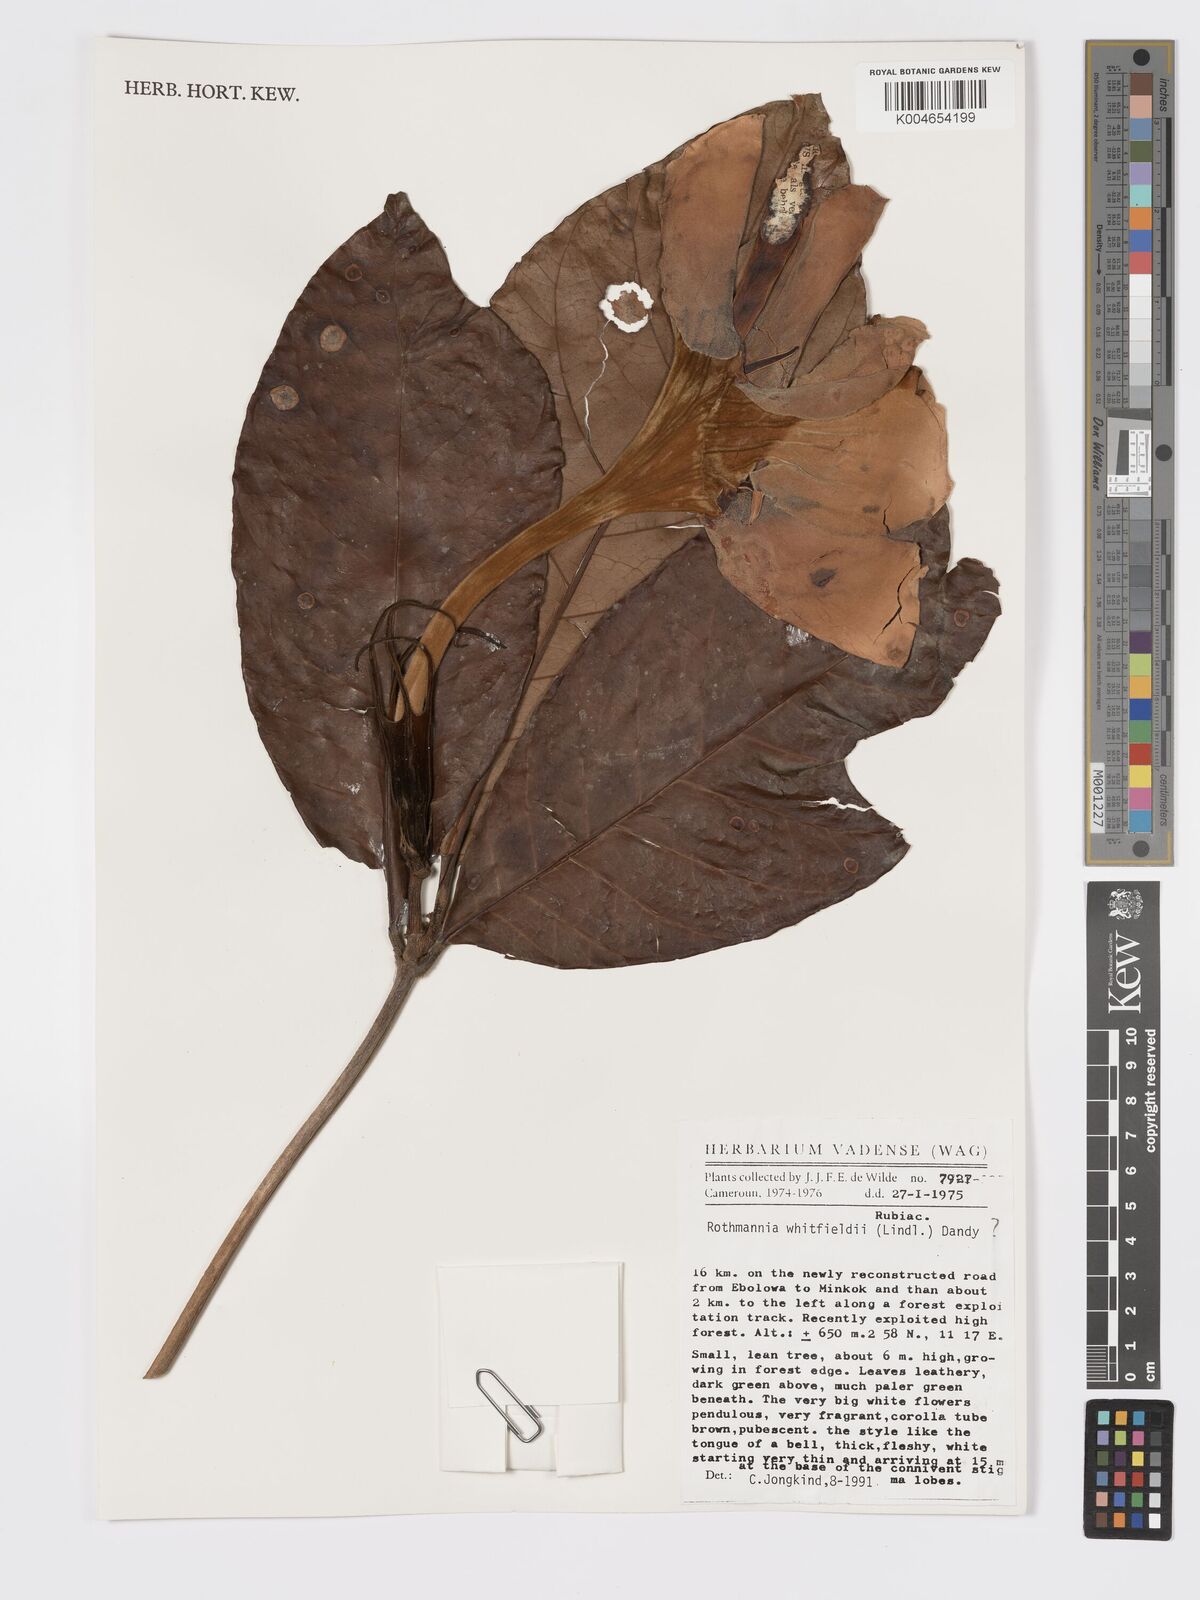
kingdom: Plantae
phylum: Tracheophyta
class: Magnoliopsida
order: Gentianales
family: Rubiaceae
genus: Rothmannia
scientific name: Rothmannia whitfieldii
